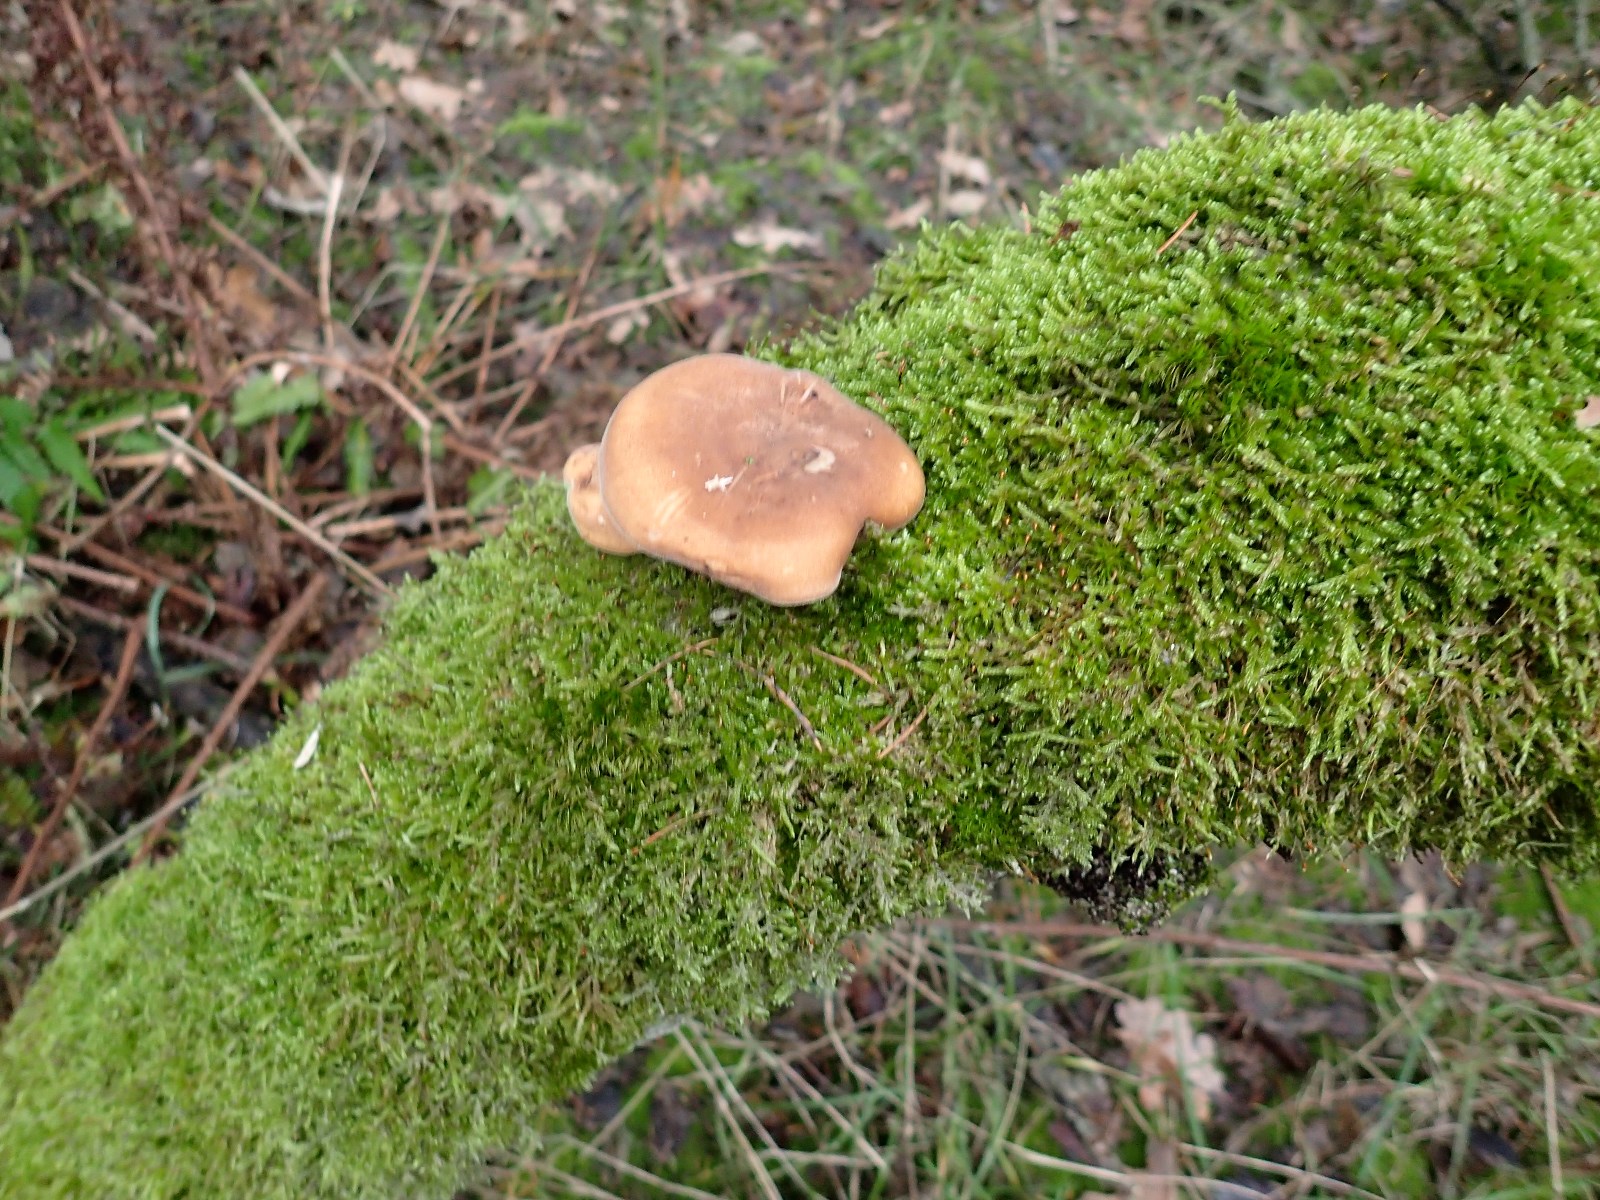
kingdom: Fungi
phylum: Basidiomycota
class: Agaricomycetes
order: Polyporales
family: Polyporaceae
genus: Lentinus
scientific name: Lentinus brumalis
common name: vinter-stilkporesvamp
